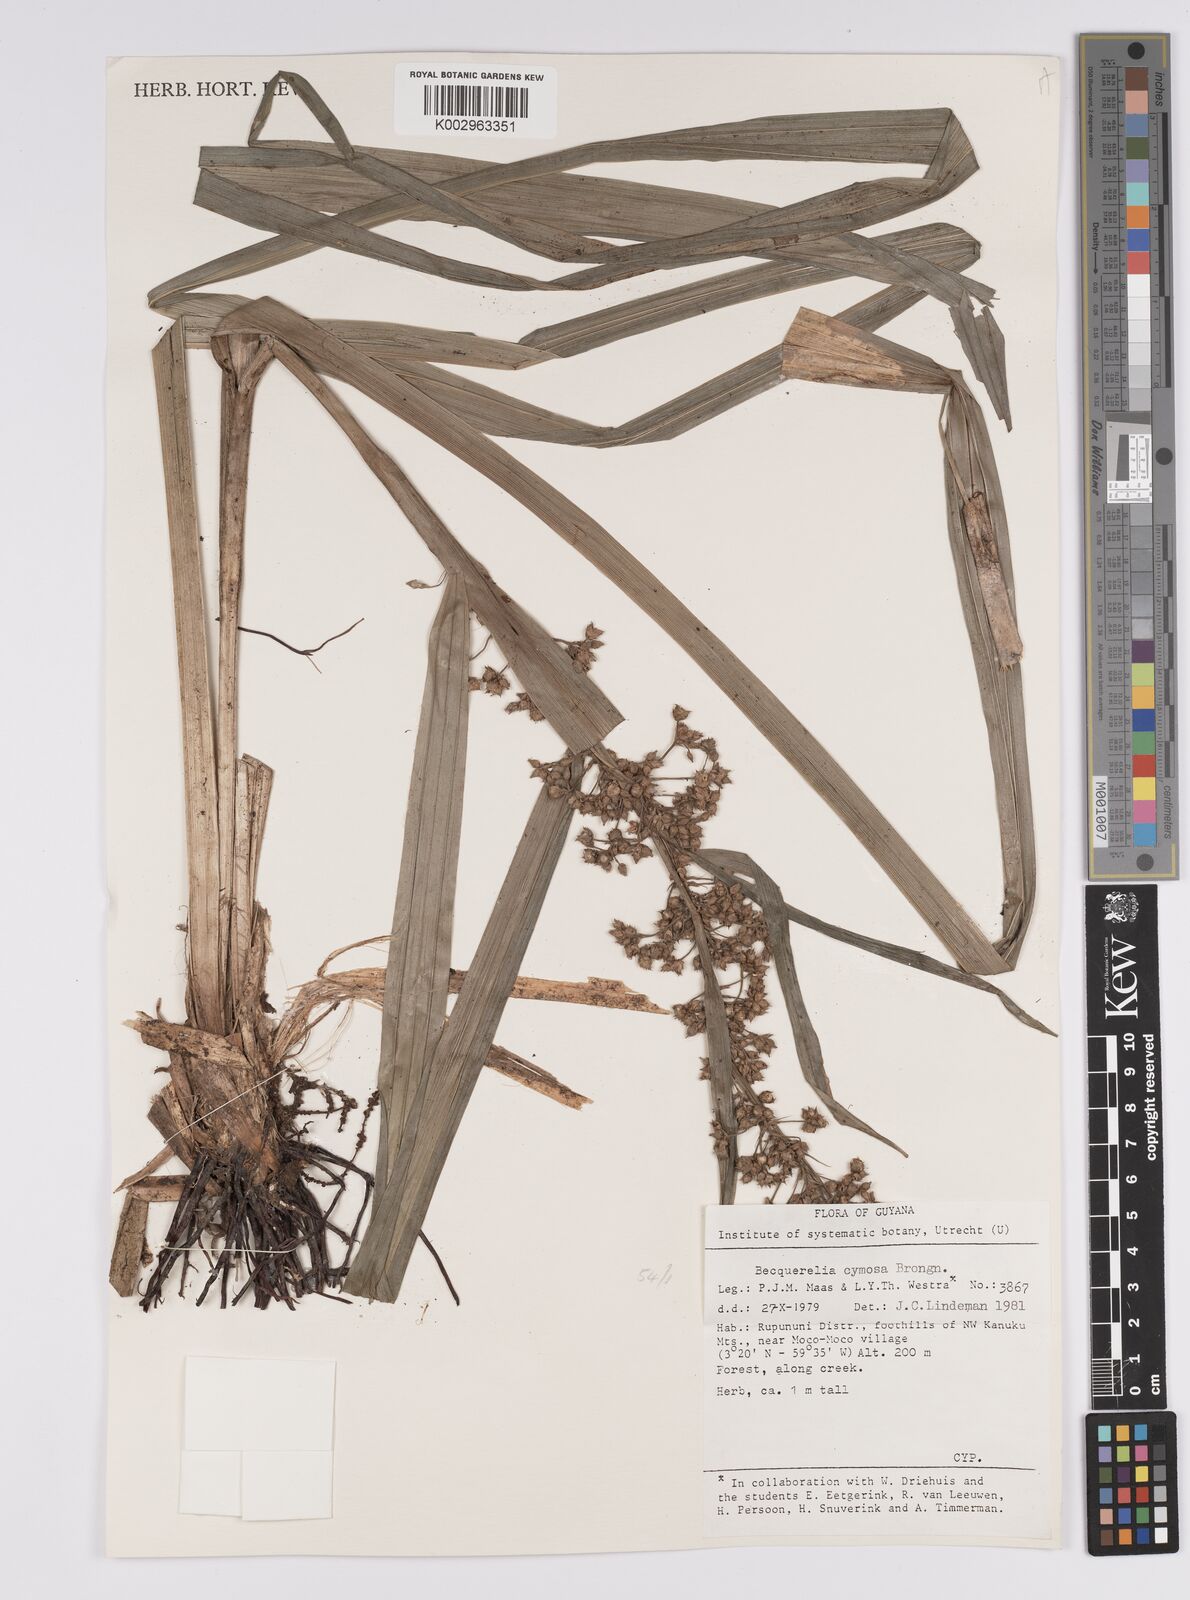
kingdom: Plantae
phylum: Tracheophyta
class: Liliopsida
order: Poales
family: Cyperaceae
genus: Becquerelia
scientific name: Becquerelia cymosa
